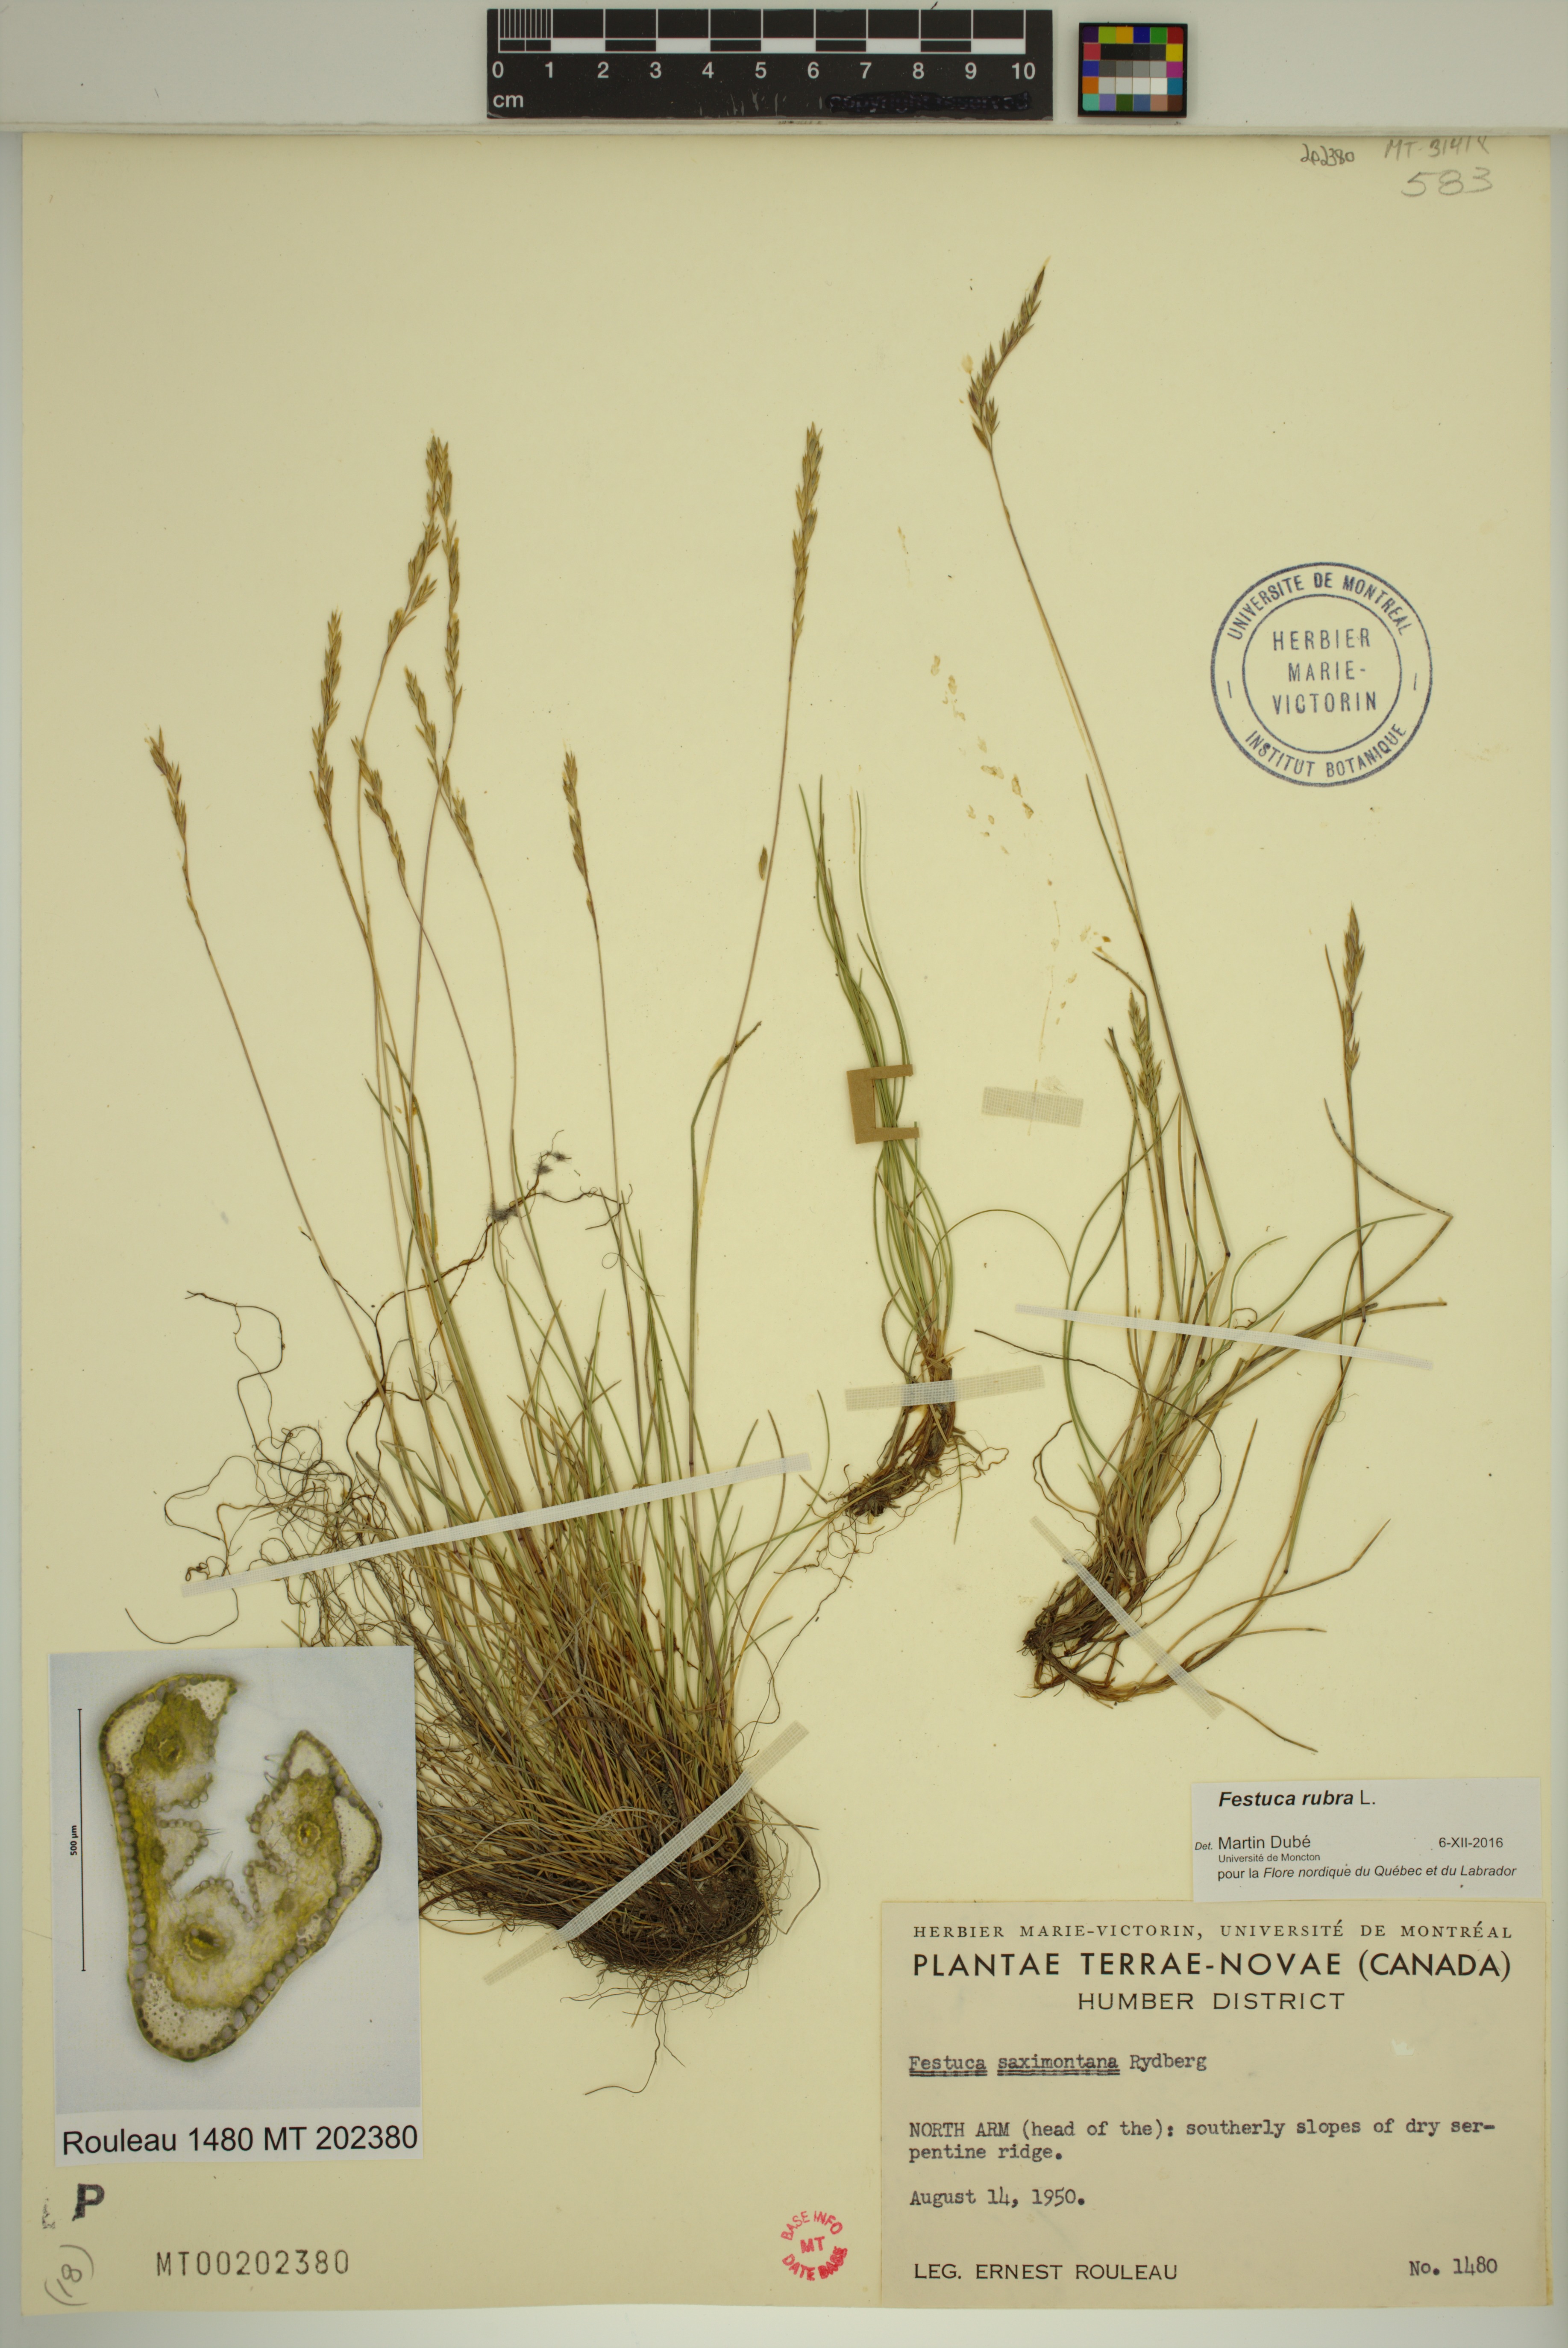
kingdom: Plantae
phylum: Tracheophyta
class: Liliopsida
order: Poales
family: Poaceae
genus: Festuca
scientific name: Festuca rubra
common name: Red fescue
